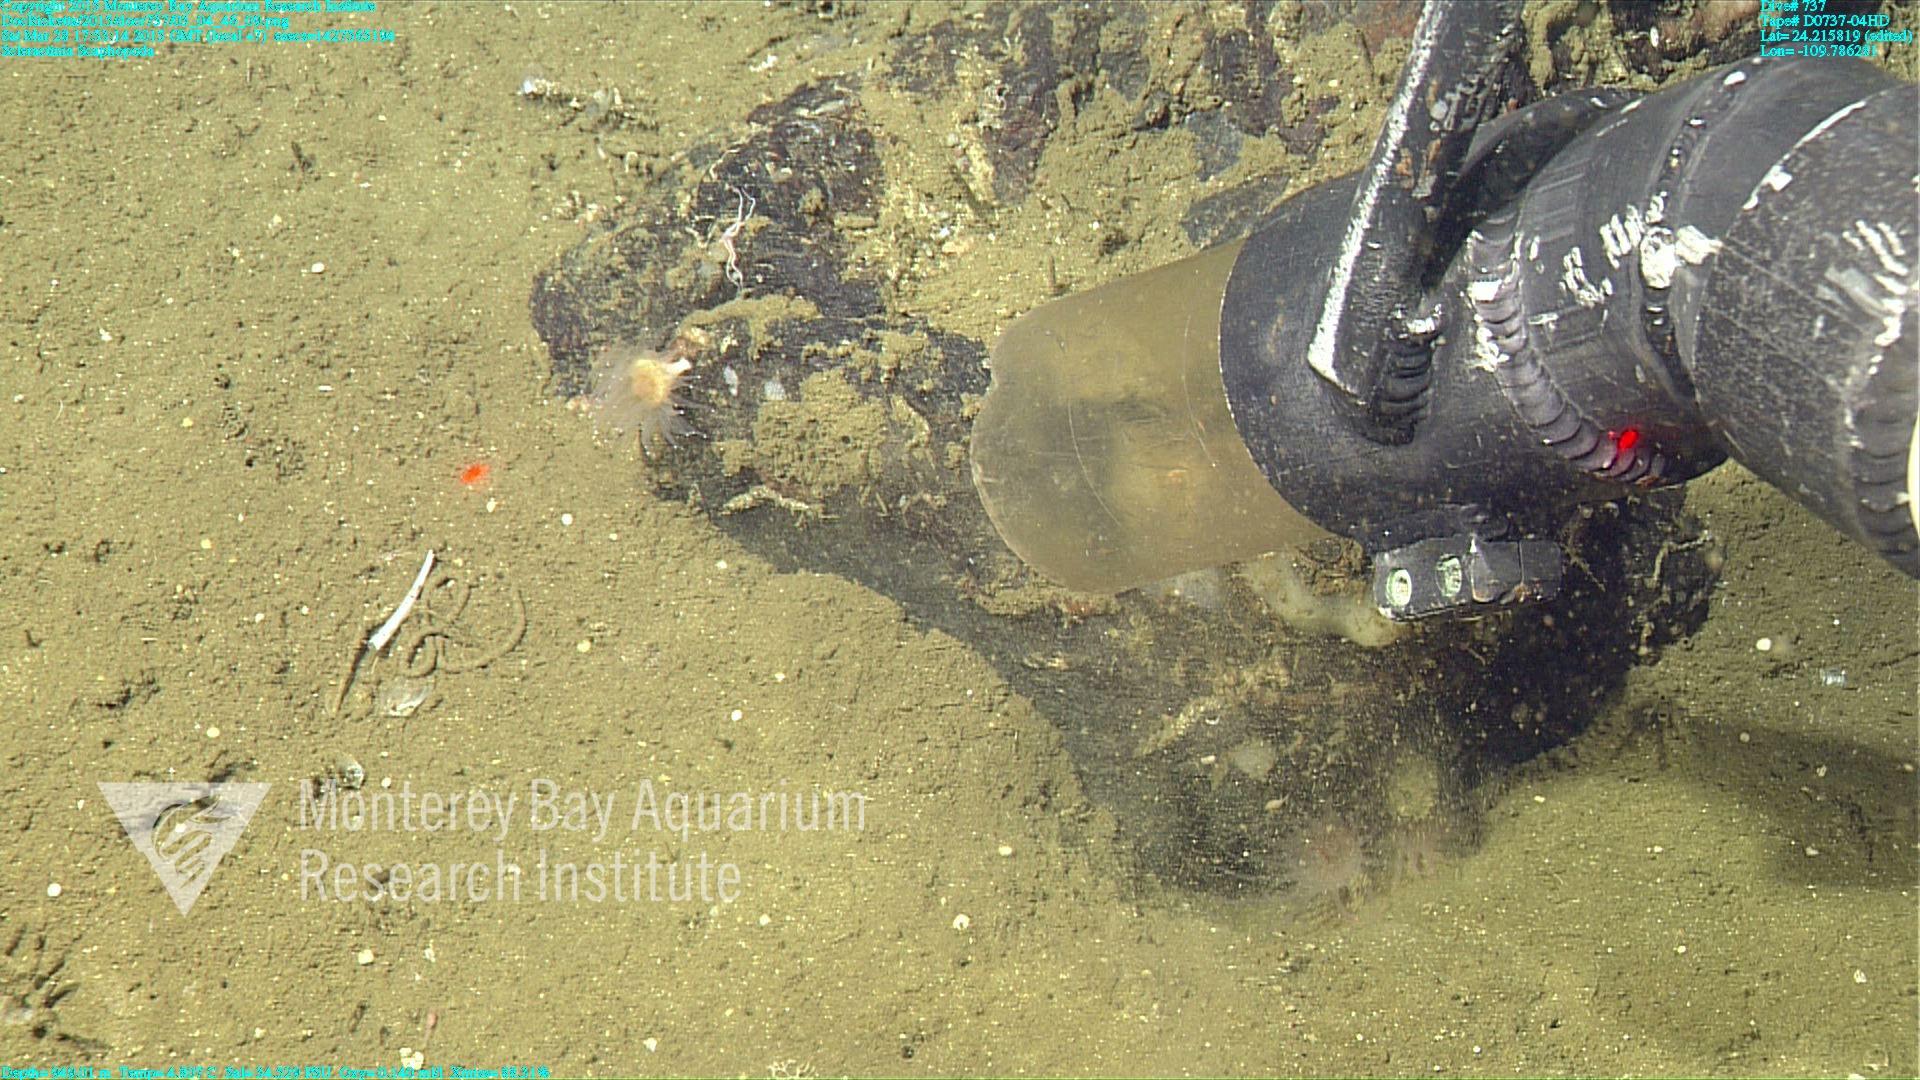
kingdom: Animalia
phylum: Cnidaria
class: Anthozoa
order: Scleractinia
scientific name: Scleractinia
